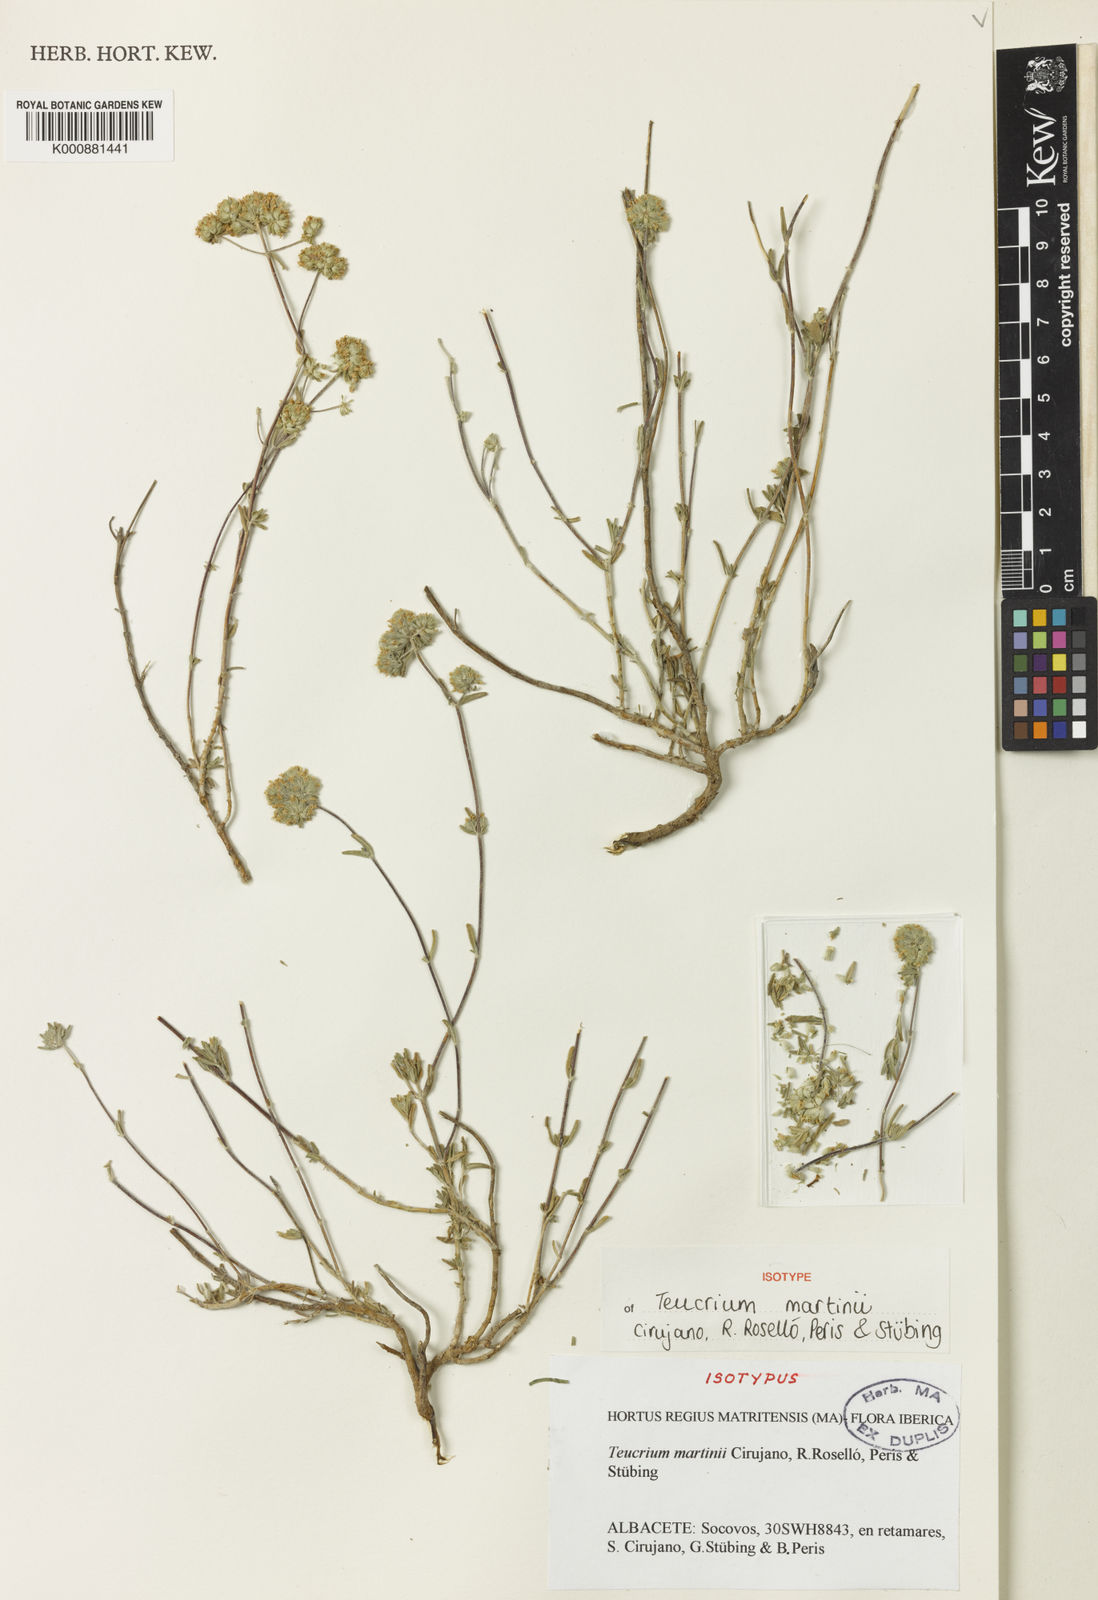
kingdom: Plantae
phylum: Tracheophyta
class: Magnoliopsida
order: Lamiales
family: Lamiaceae
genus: Teucrium
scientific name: Teucrium
